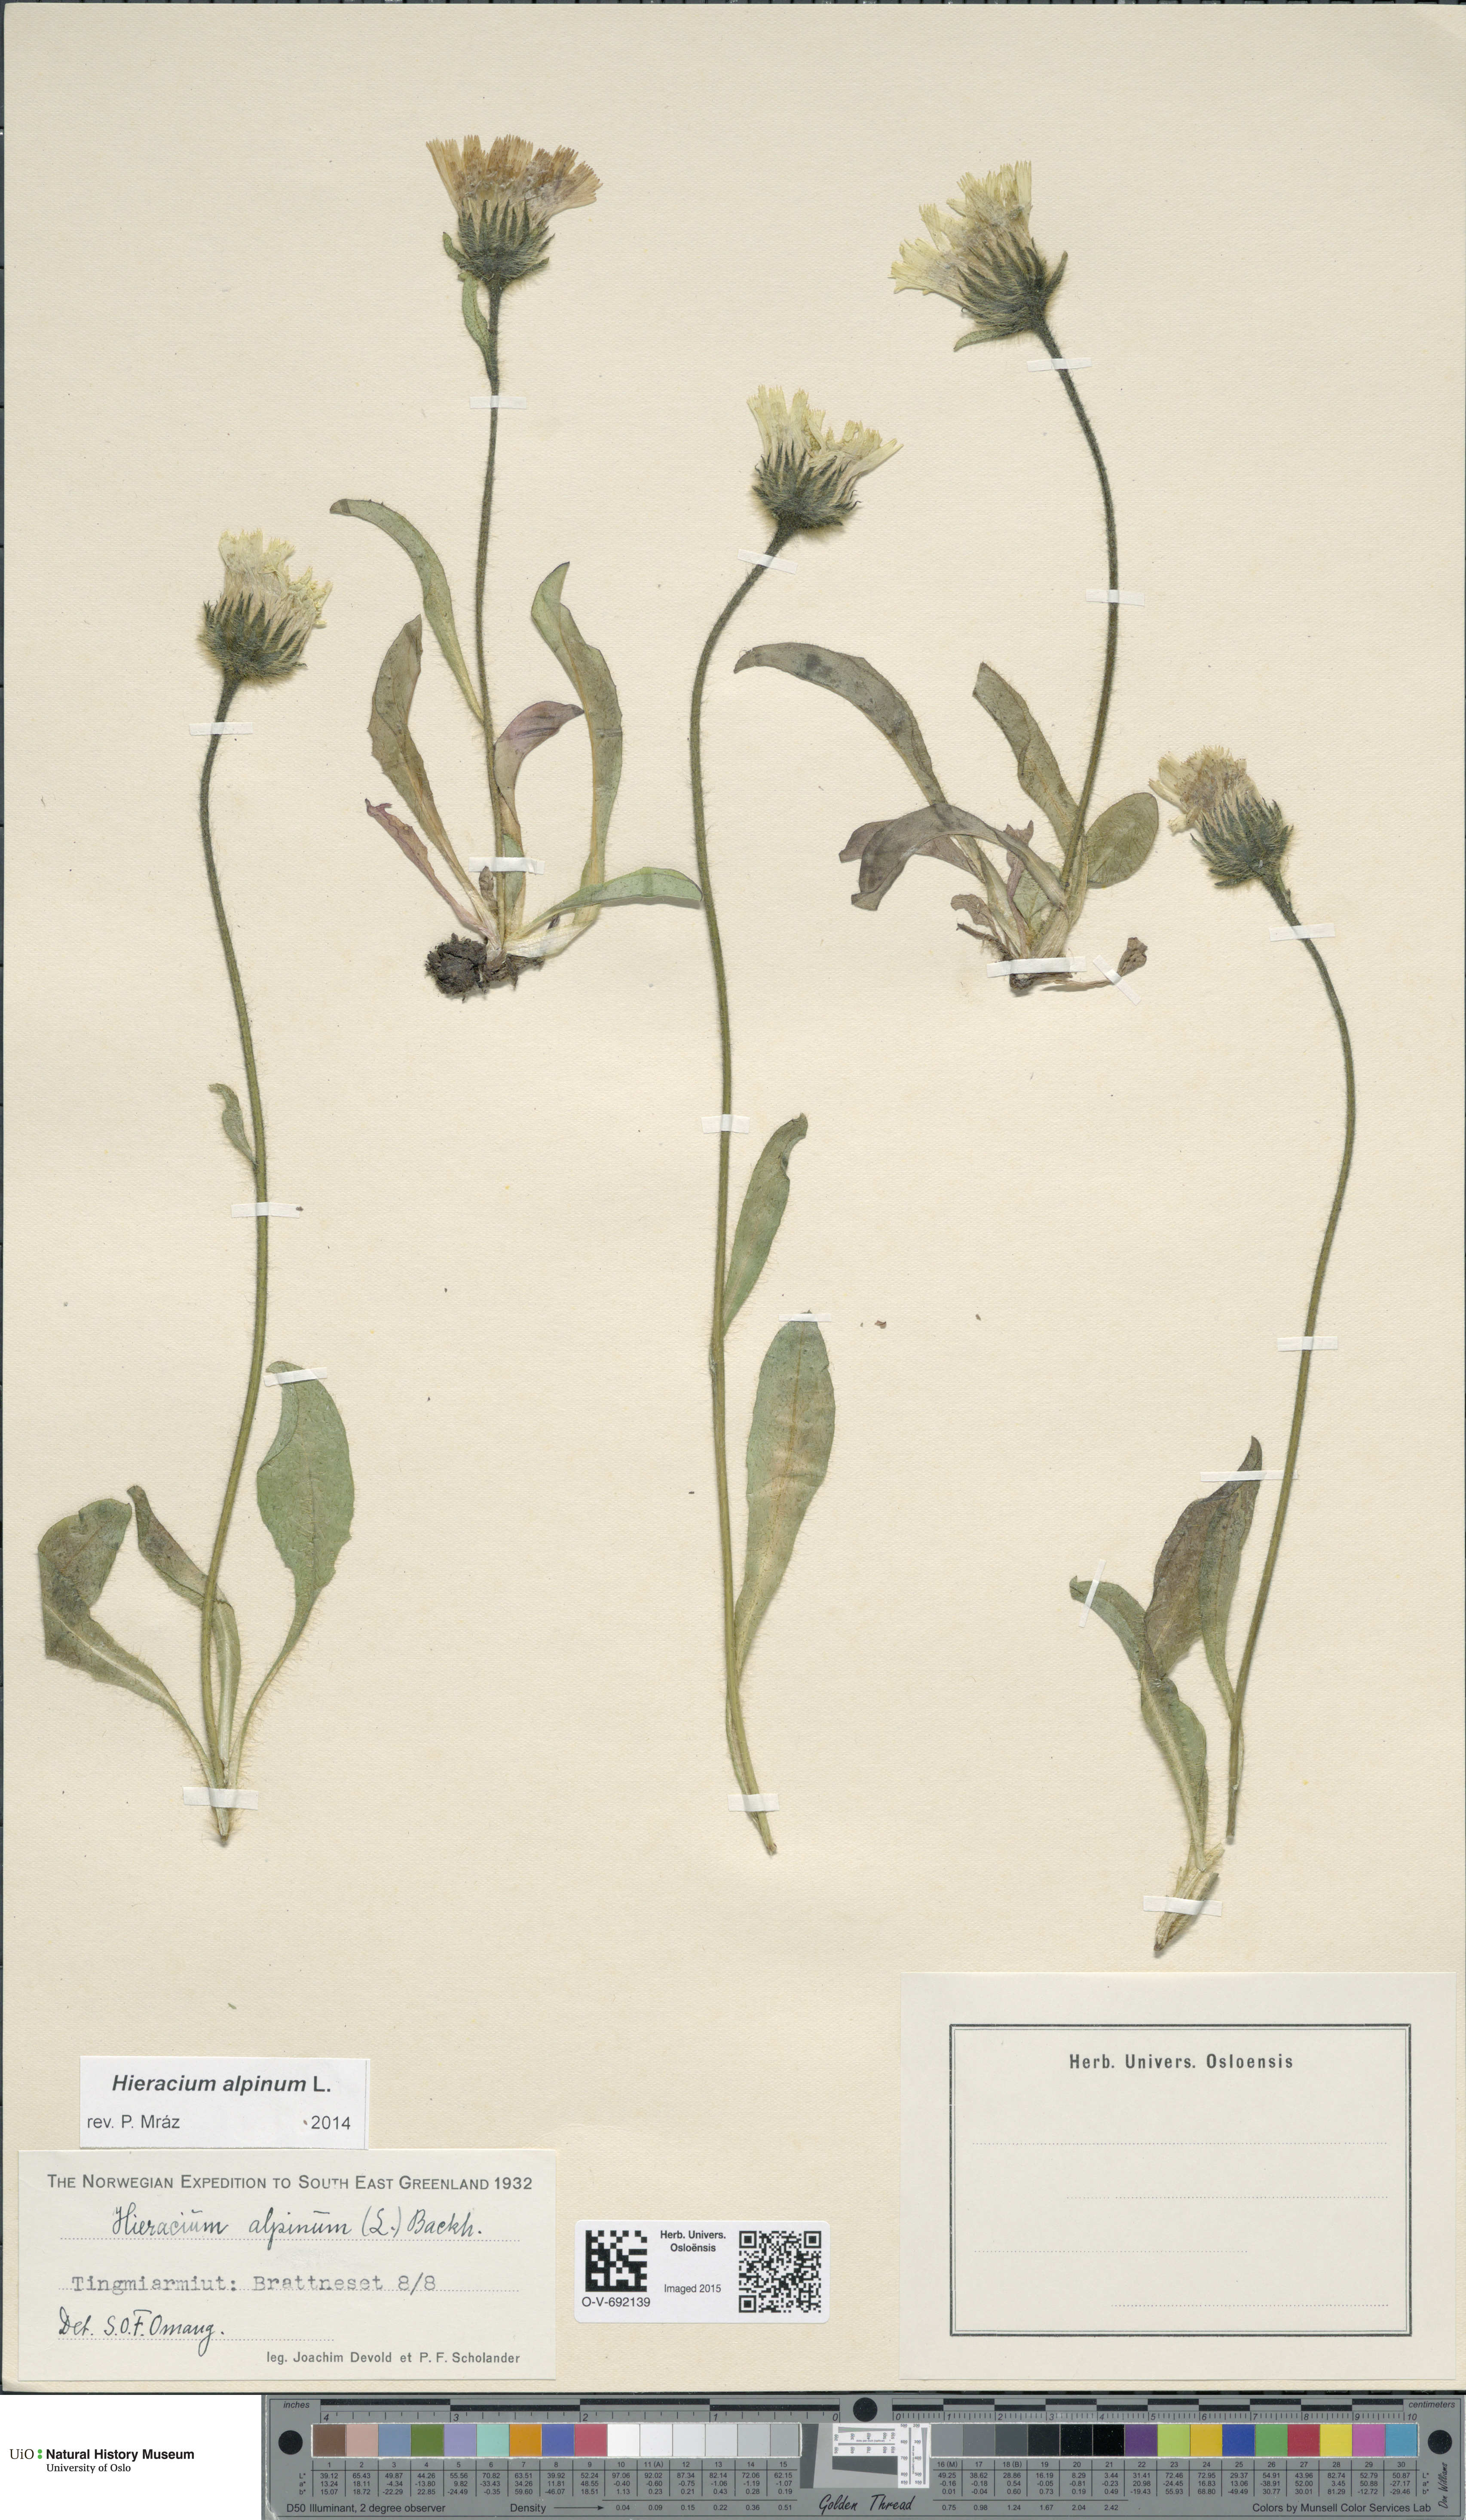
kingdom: Plantae
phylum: Tracheophyta
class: Magnoliopsida
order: Asterales
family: Asteraceae
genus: Hieracium
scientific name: Hieracium alpinum
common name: Alpine hawkweed
